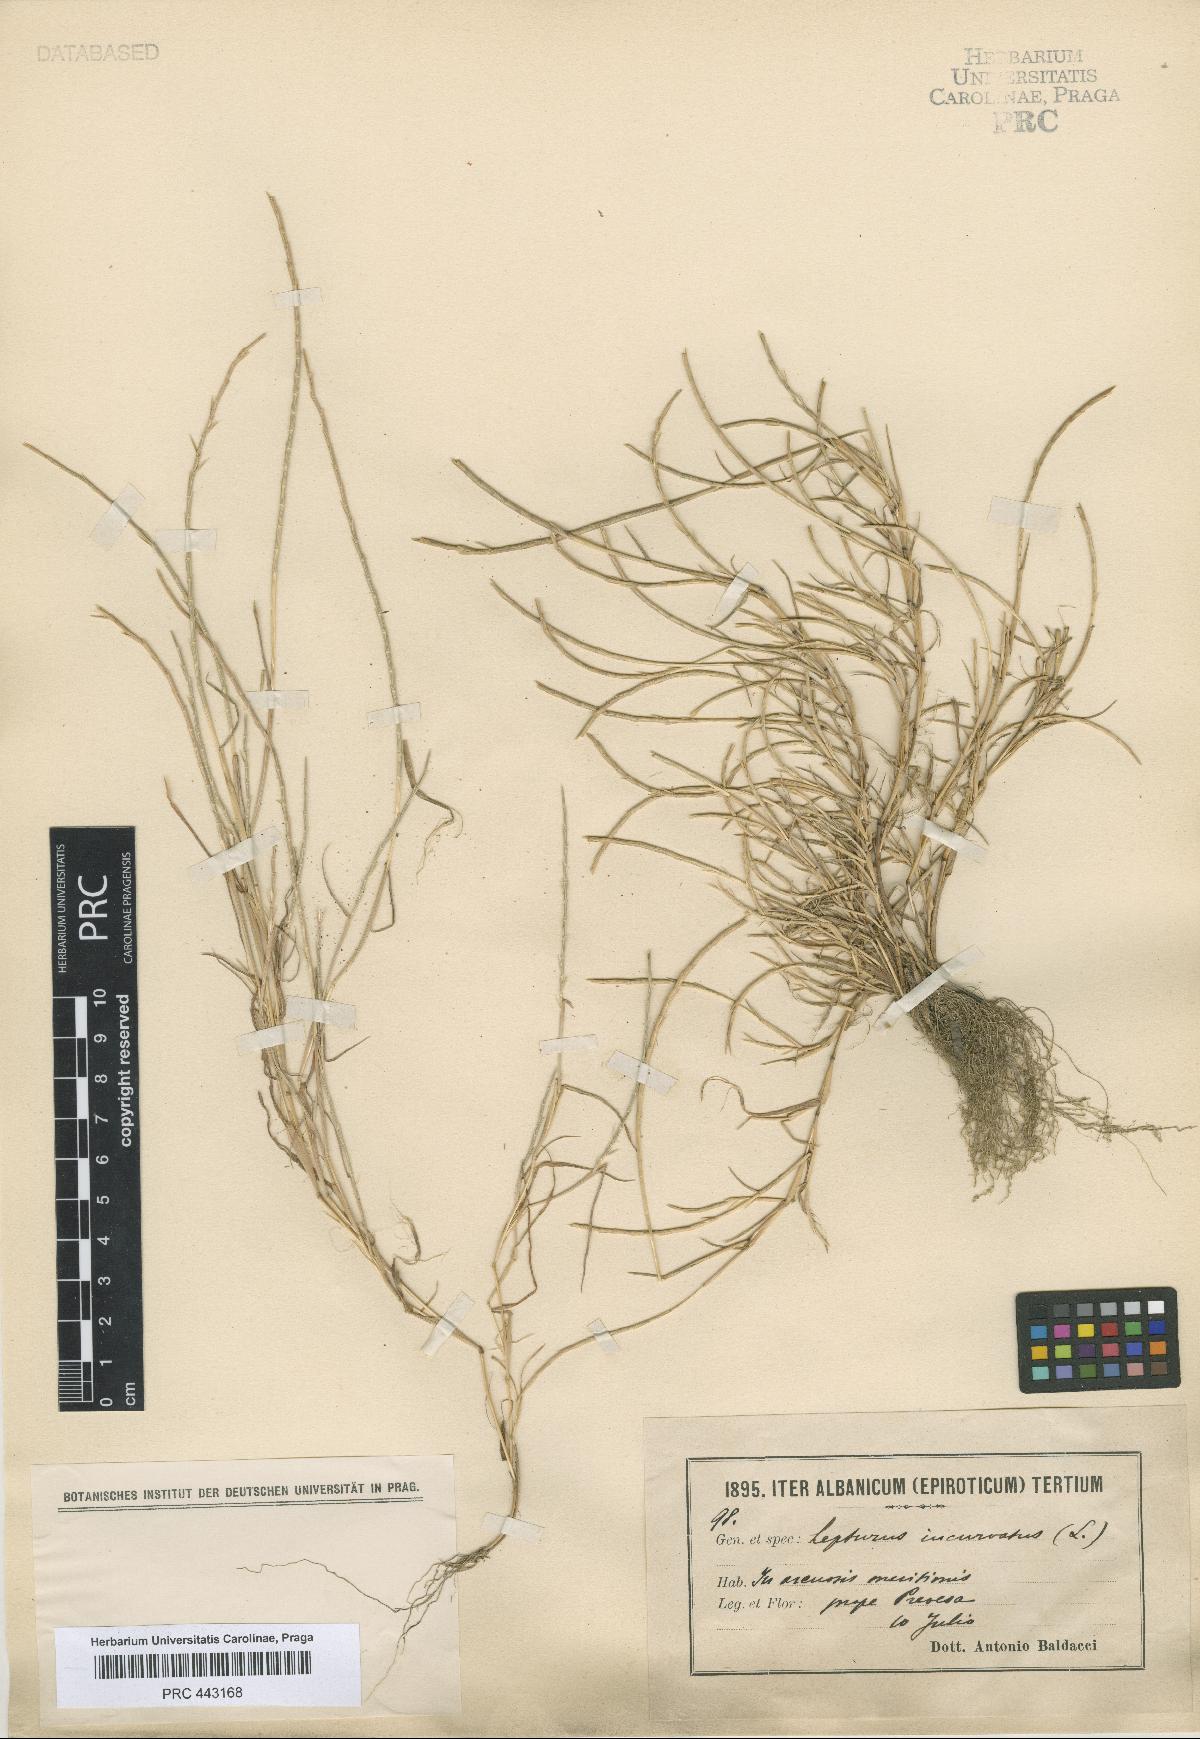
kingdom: Plantae
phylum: Tracheophyta
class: Liliopsida
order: Poales
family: Poaceae
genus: Parapholis
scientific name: Parapholis incurva
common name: Curved sicklegrass
